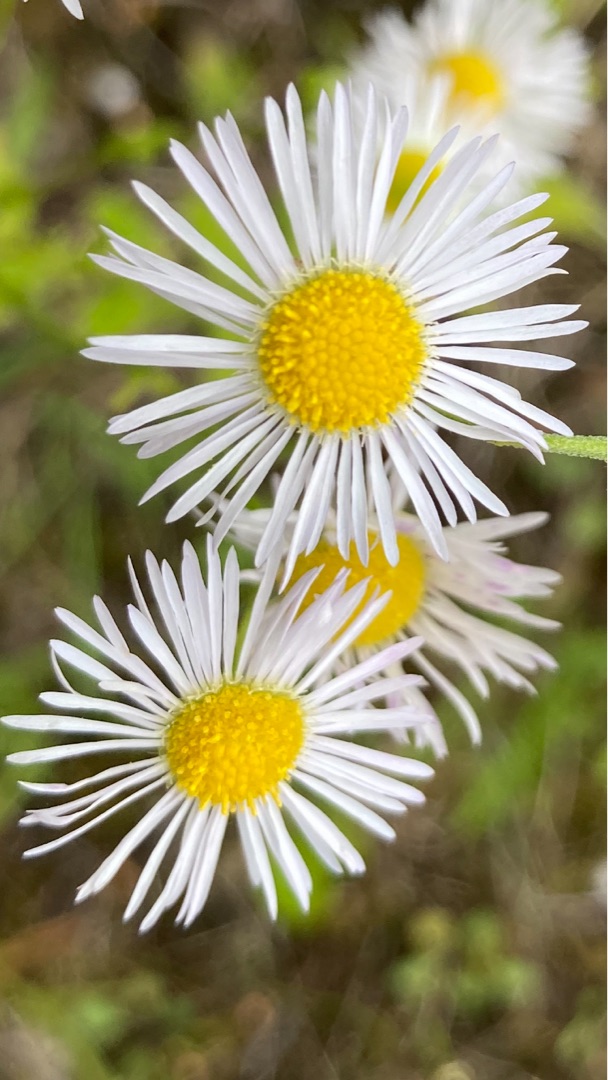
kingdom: Plantae
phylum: Tracheophyta
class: Magnoliopsida
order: Asterales
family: Asteraceae
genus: Erigeron
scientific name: Erigeron annuus
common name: Smalstråle
